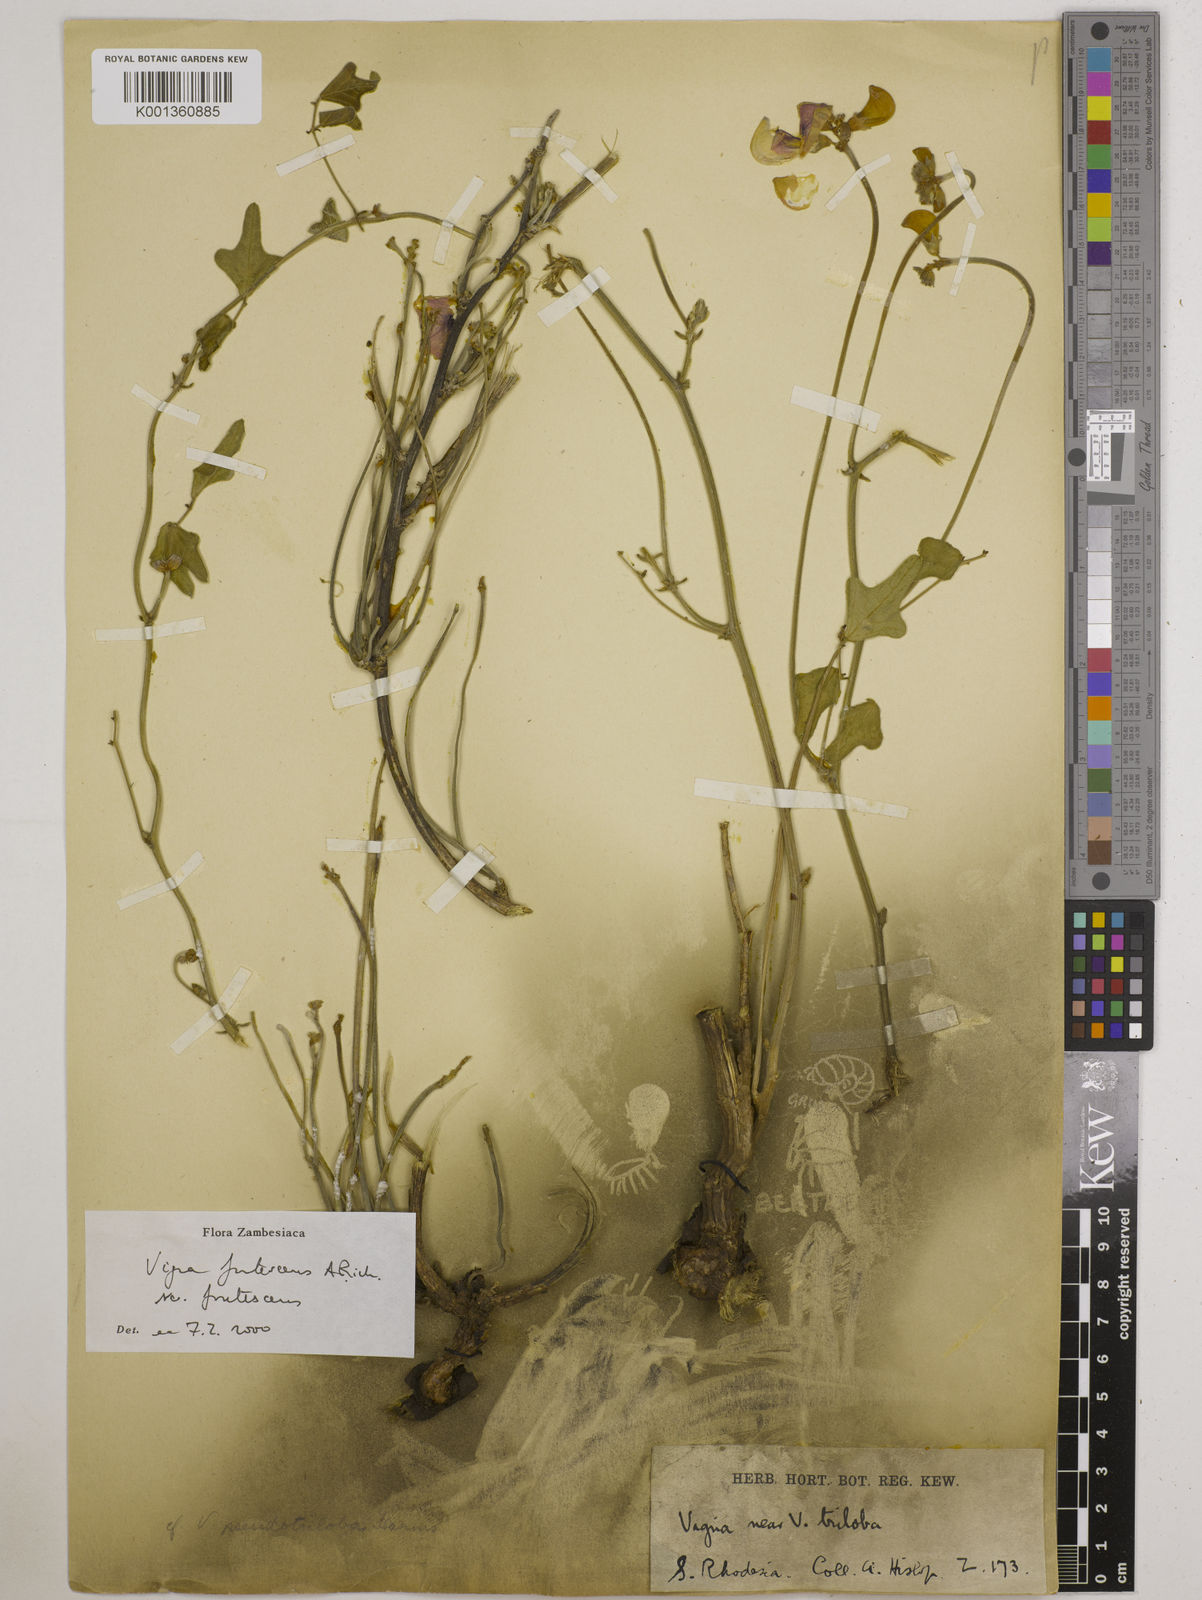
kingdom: Plantae
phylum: Tracheophyta
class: Magnoliopsida
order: Fabales
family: Fabaceae
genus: Vigna
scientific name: Vigna
